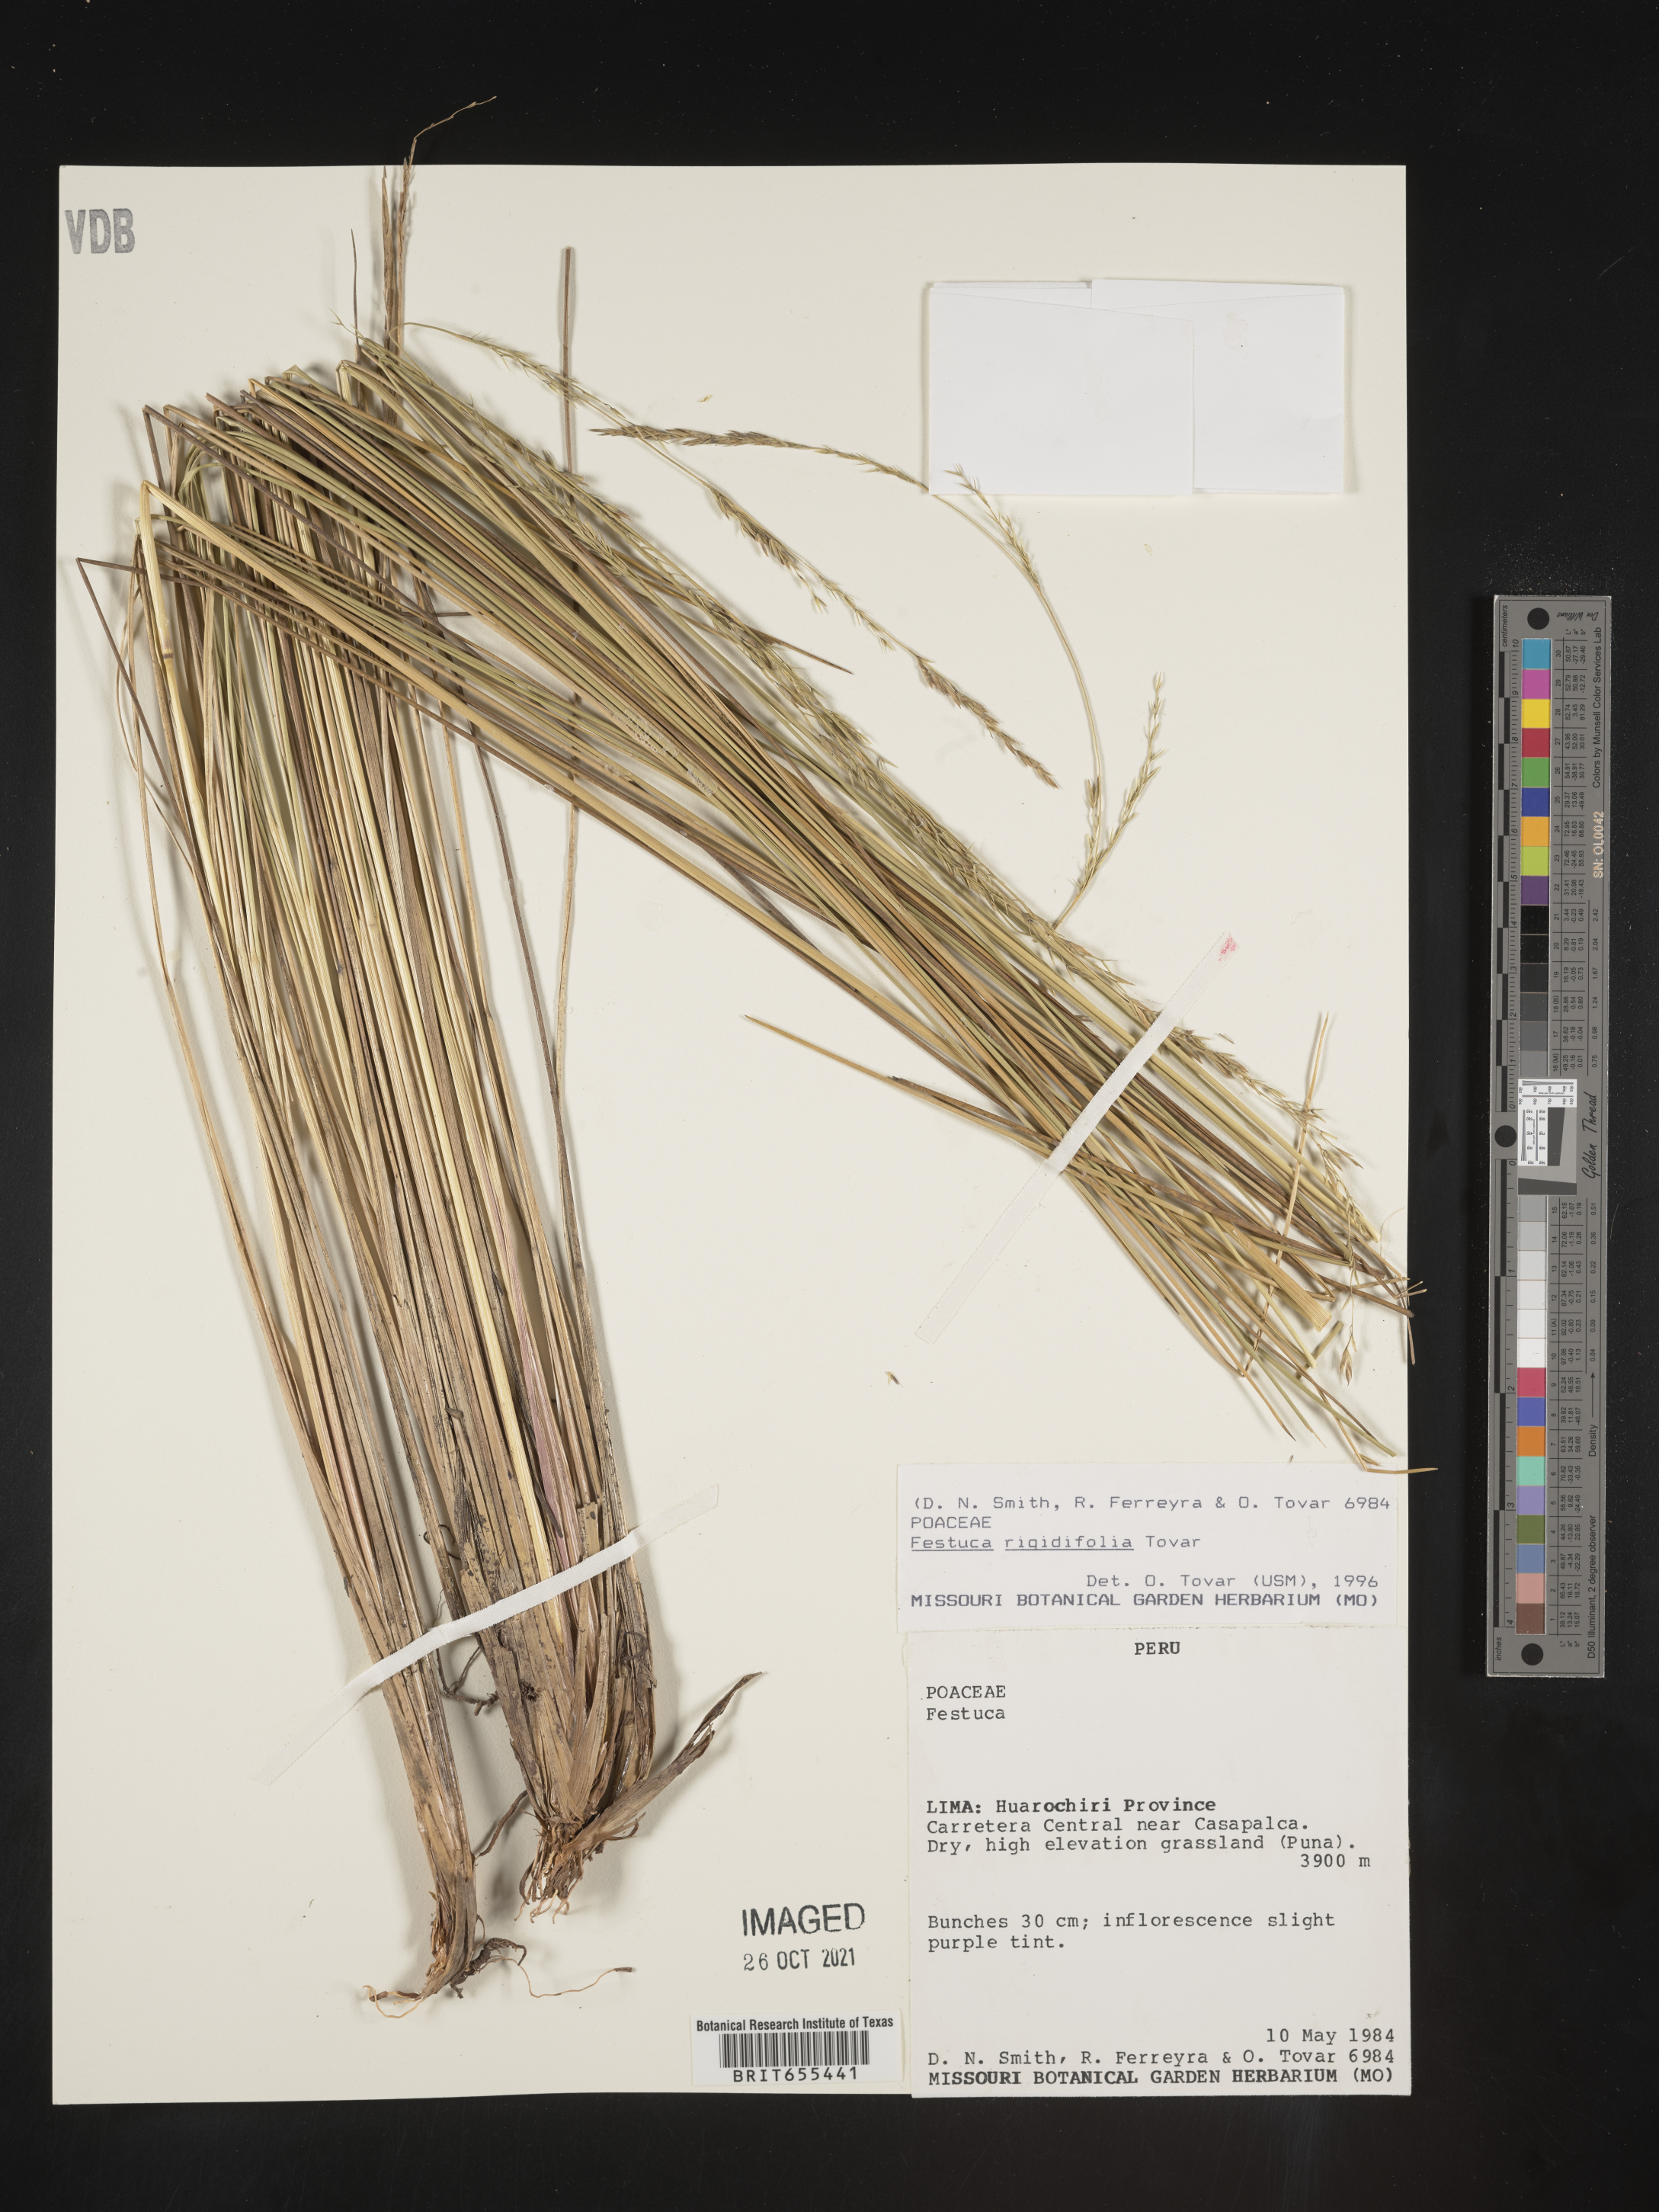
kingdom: Plantae
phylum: Tracheophyta
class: Liliopsida
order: Poales
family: Poaceae
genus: Festuca
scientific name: Festuca
